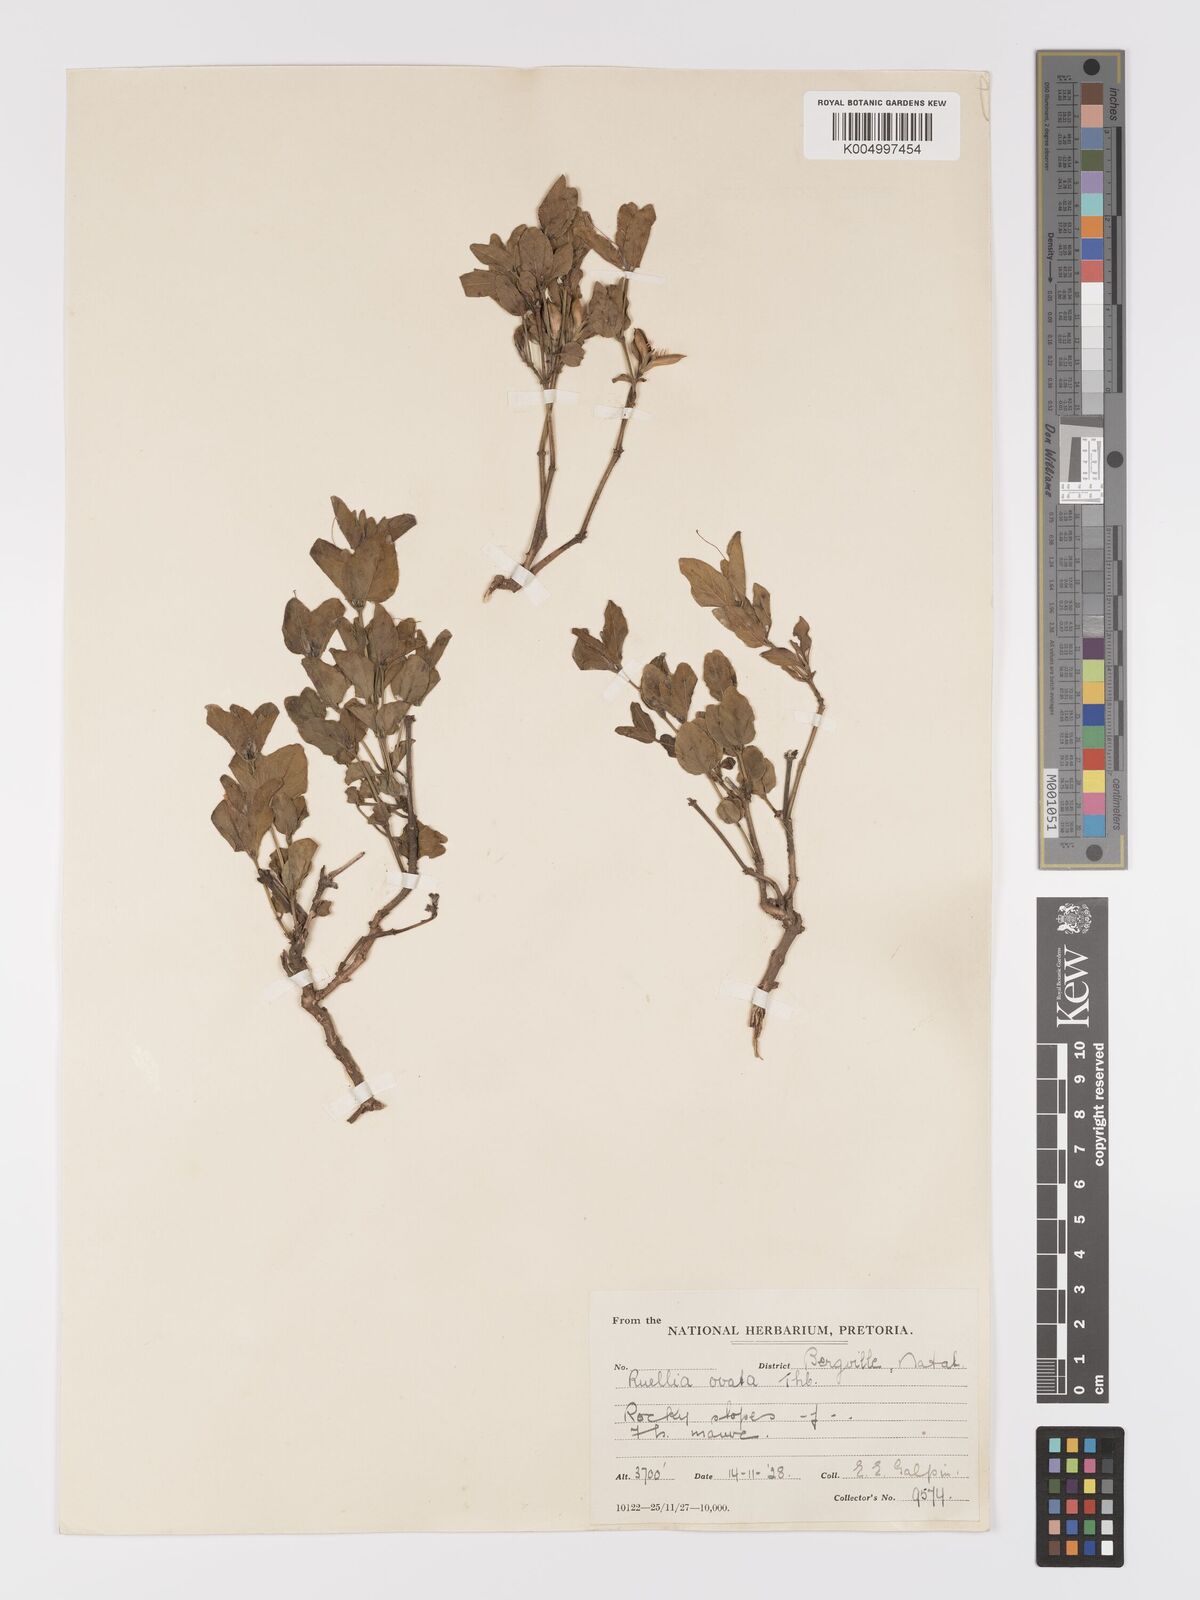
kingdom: Plantae
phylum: Tracheophyta
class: Magnoliopsida
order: Lamiales
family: Acanthaceae
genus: Ruellia
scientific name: Ruellia cordata
